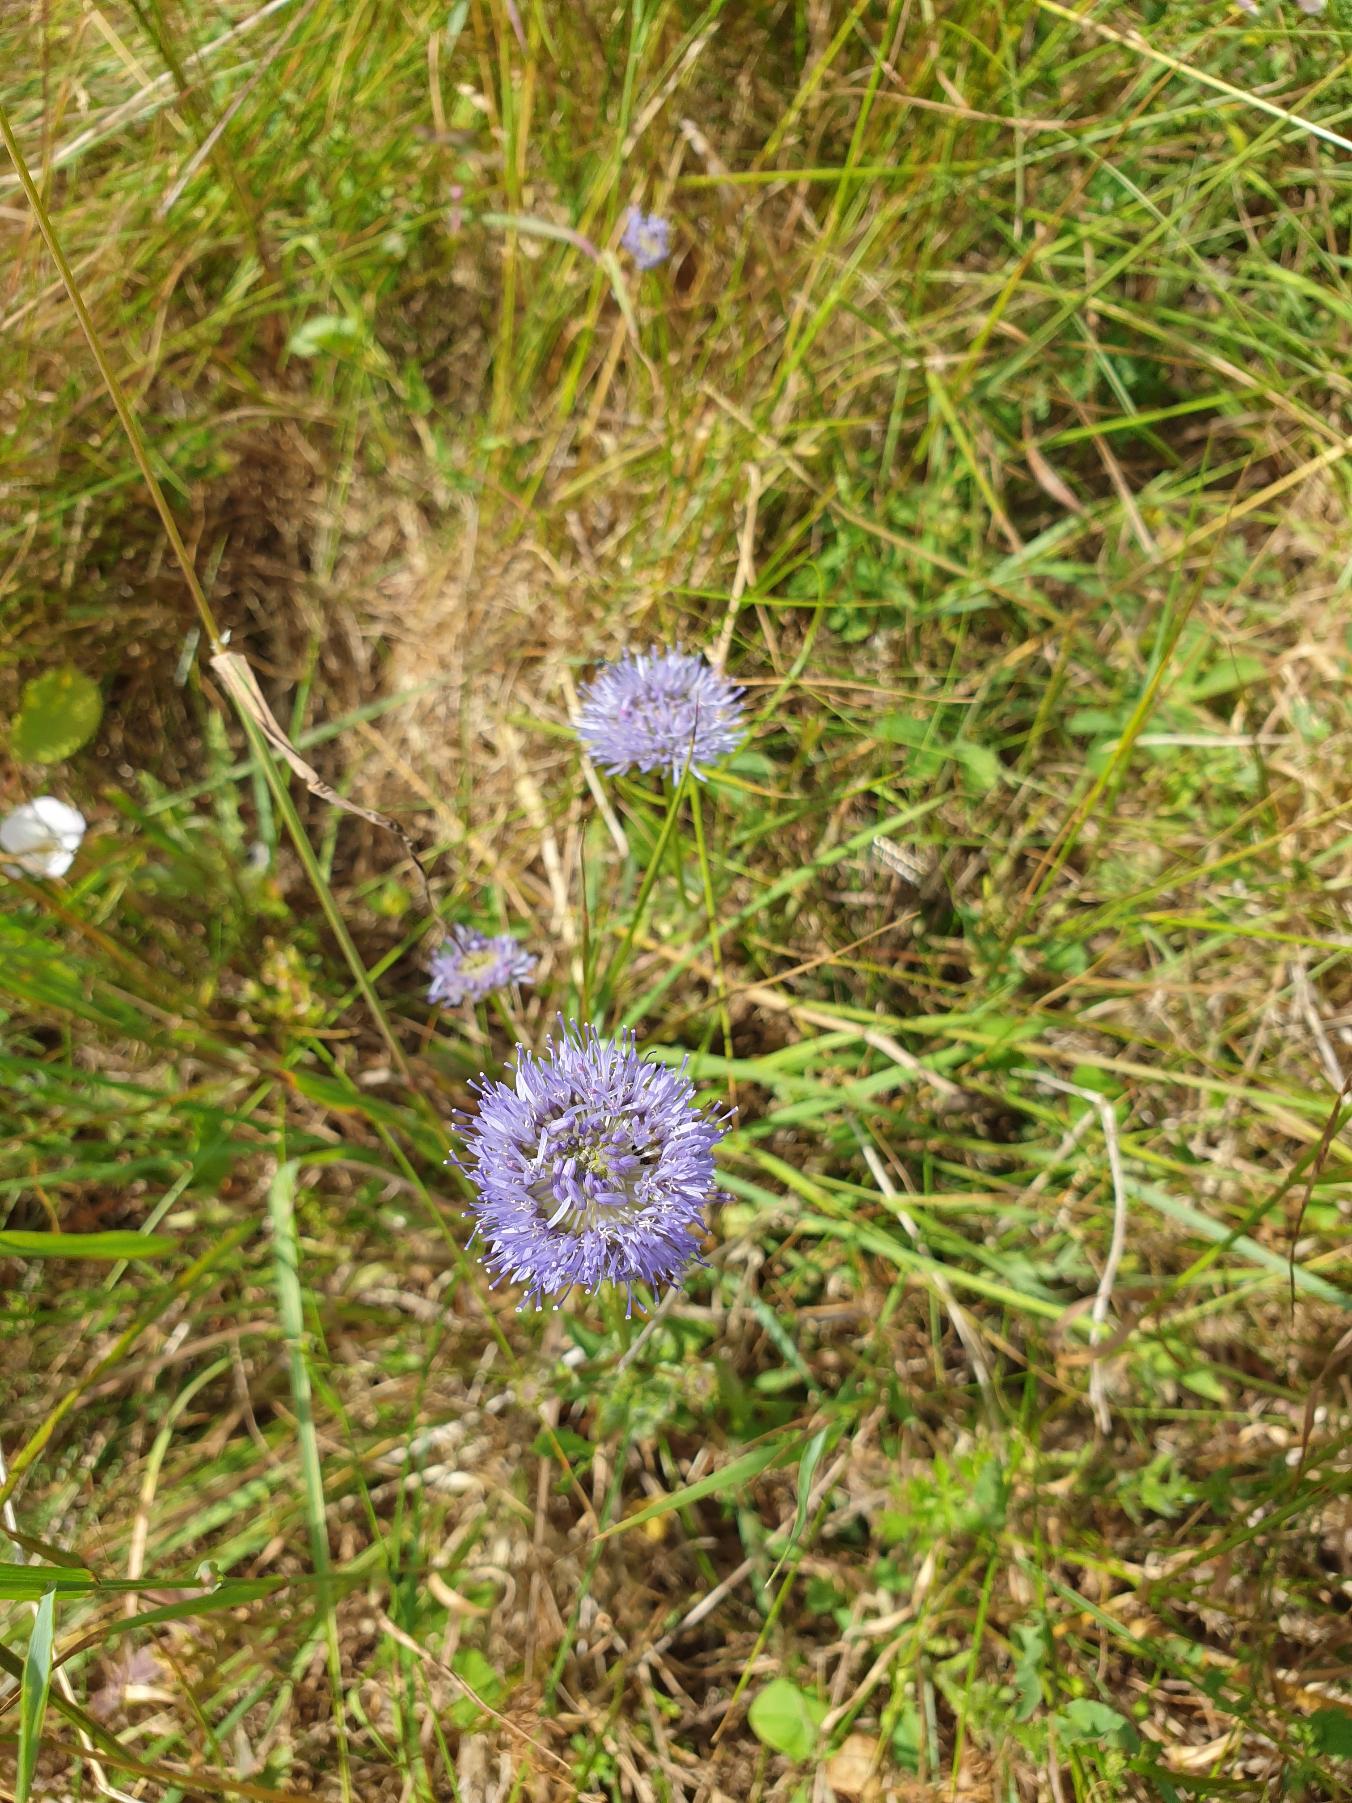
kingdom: Plantae
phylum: Tracheophyta
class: Magnoliopsida
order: Asterales
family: Campanulaceae
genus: Jasione
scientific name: Jasione montana
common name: Blåmunke
